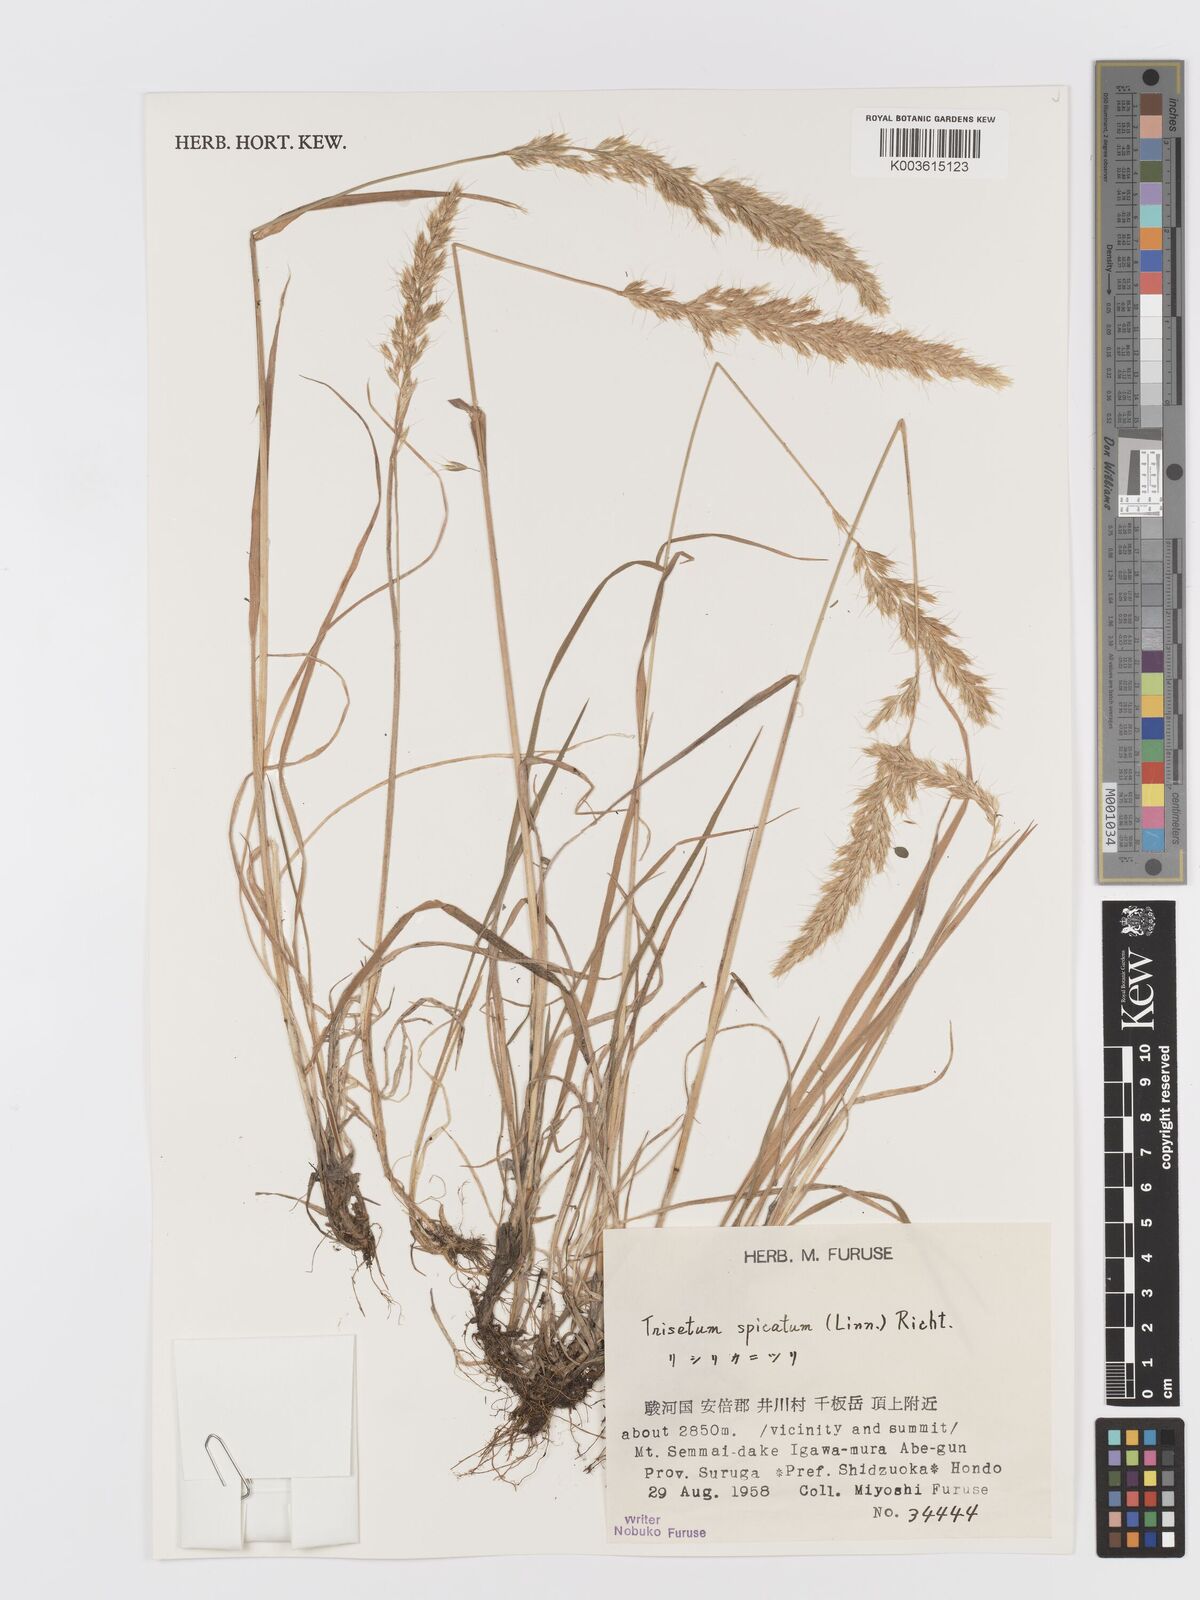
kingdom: Plantae
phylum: Tracheophyta
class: Liliopsida
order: Poales
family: Poaceae
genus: Koeleria
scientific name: Koeleria spicata
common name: Mountain trisetum
